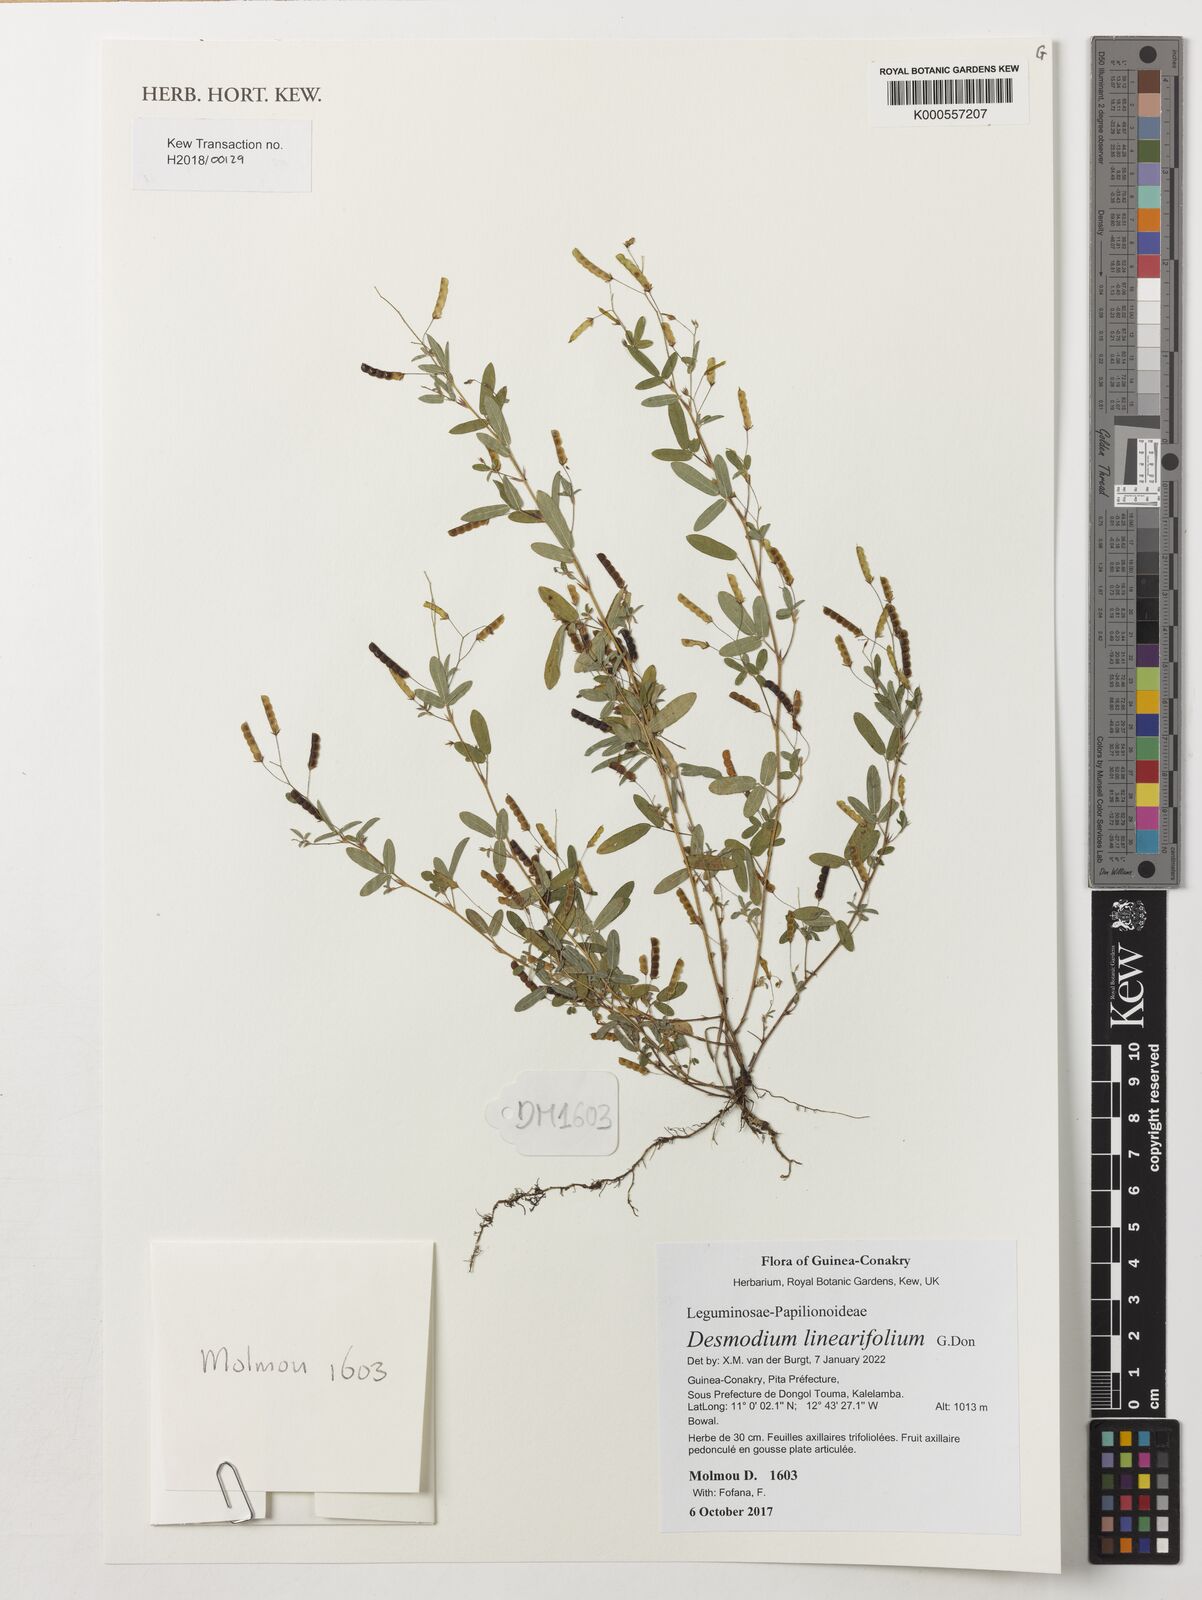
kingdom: Plantae
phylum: Tracheophyta
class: Magnoliopsida
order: Fabales
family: Fabaceae
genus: Desmodium
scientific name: Desmodium linearifolium
